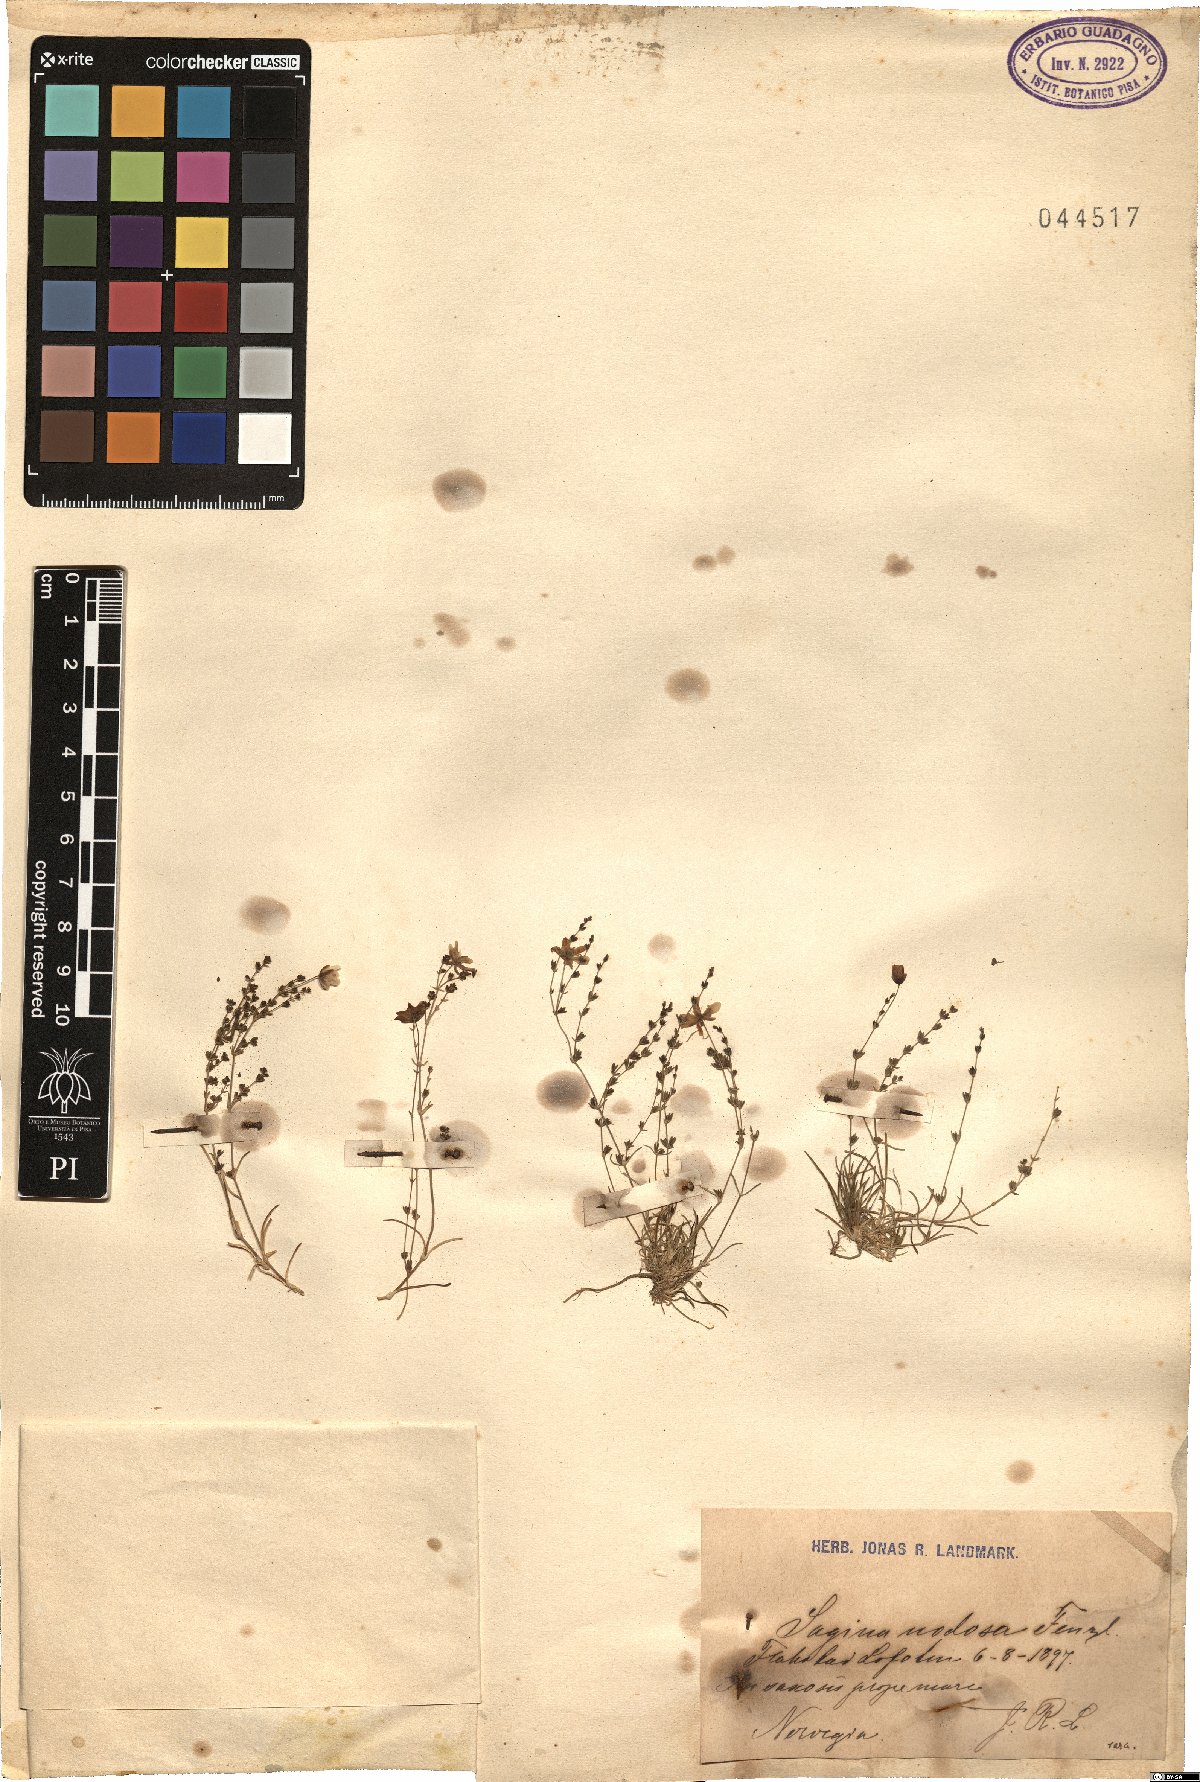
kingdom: Plantae
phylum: Tracheophyta
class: Magnoliopsida
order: Caryophyllales
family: Caryophyllaceae
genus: Sagina
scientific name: Sagina nodosa
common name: Knotted pearlwort
